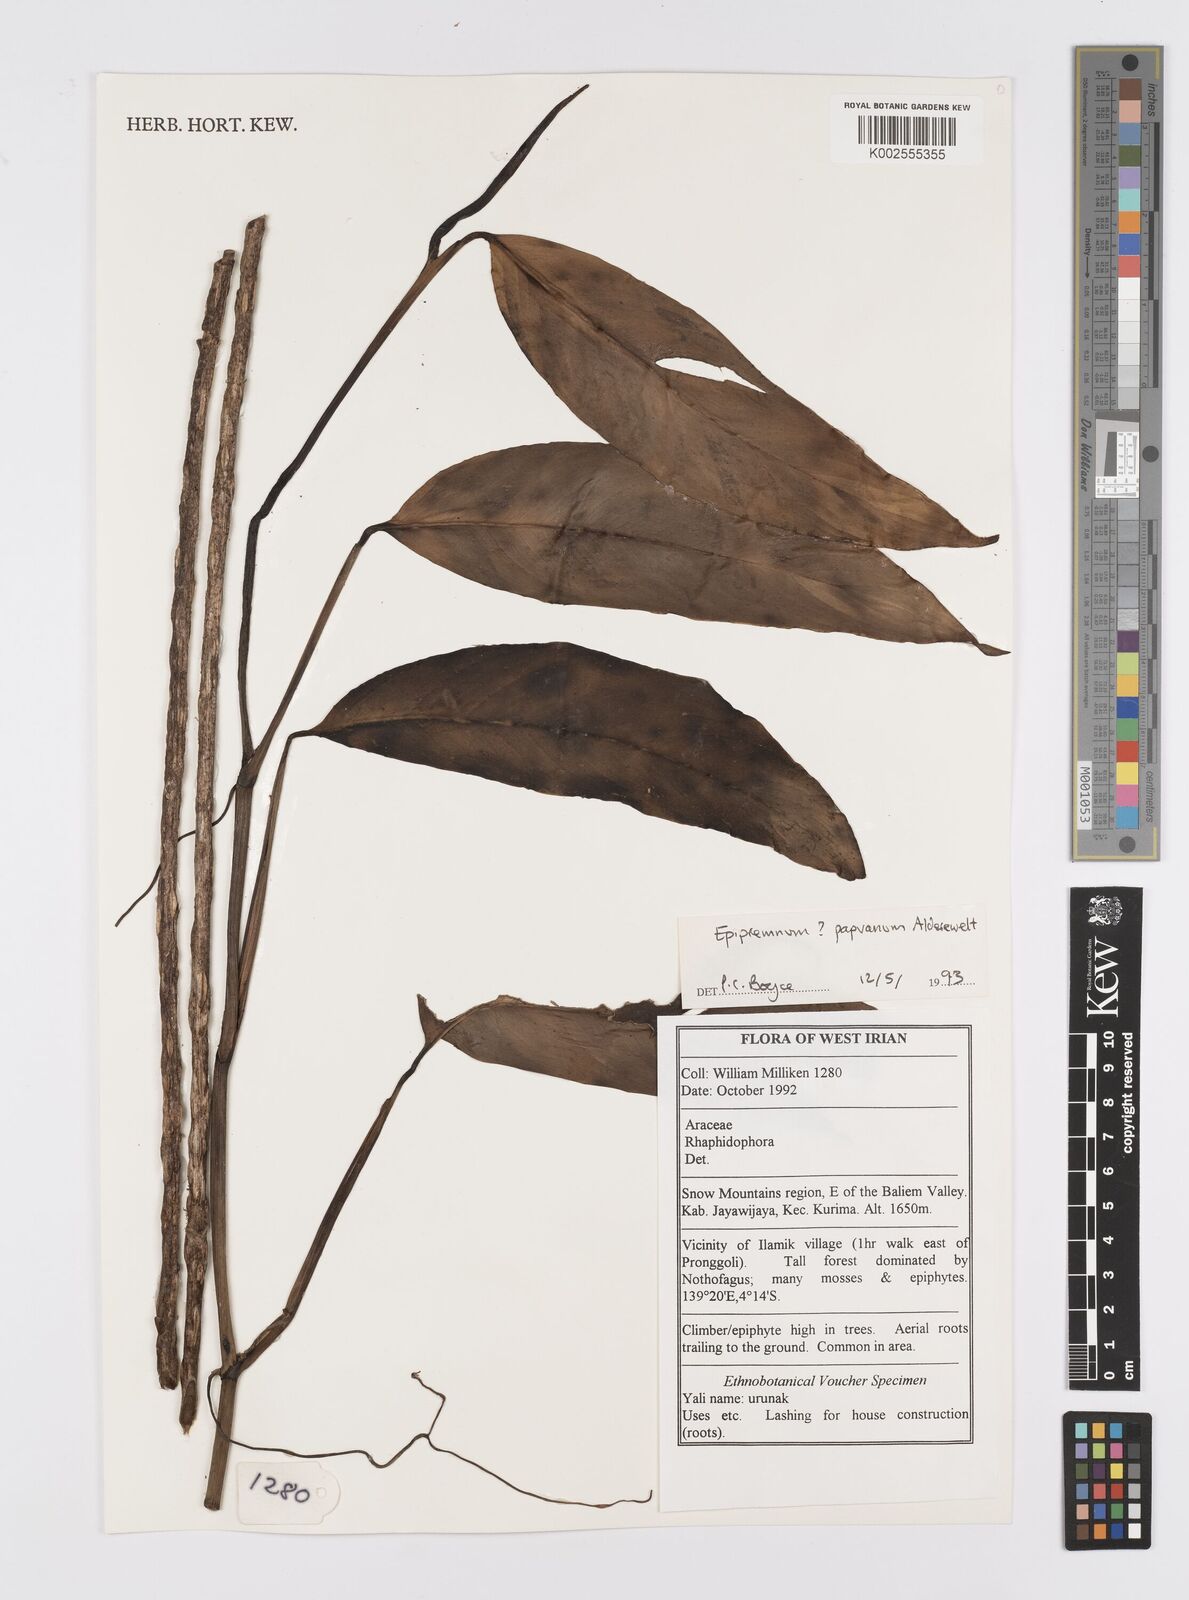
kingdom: Plantae
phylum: Tracheophyta
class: Liliopsida
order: Alismatales
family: Araceae
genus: Epipremnum
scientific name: Epipremnum papuanum
